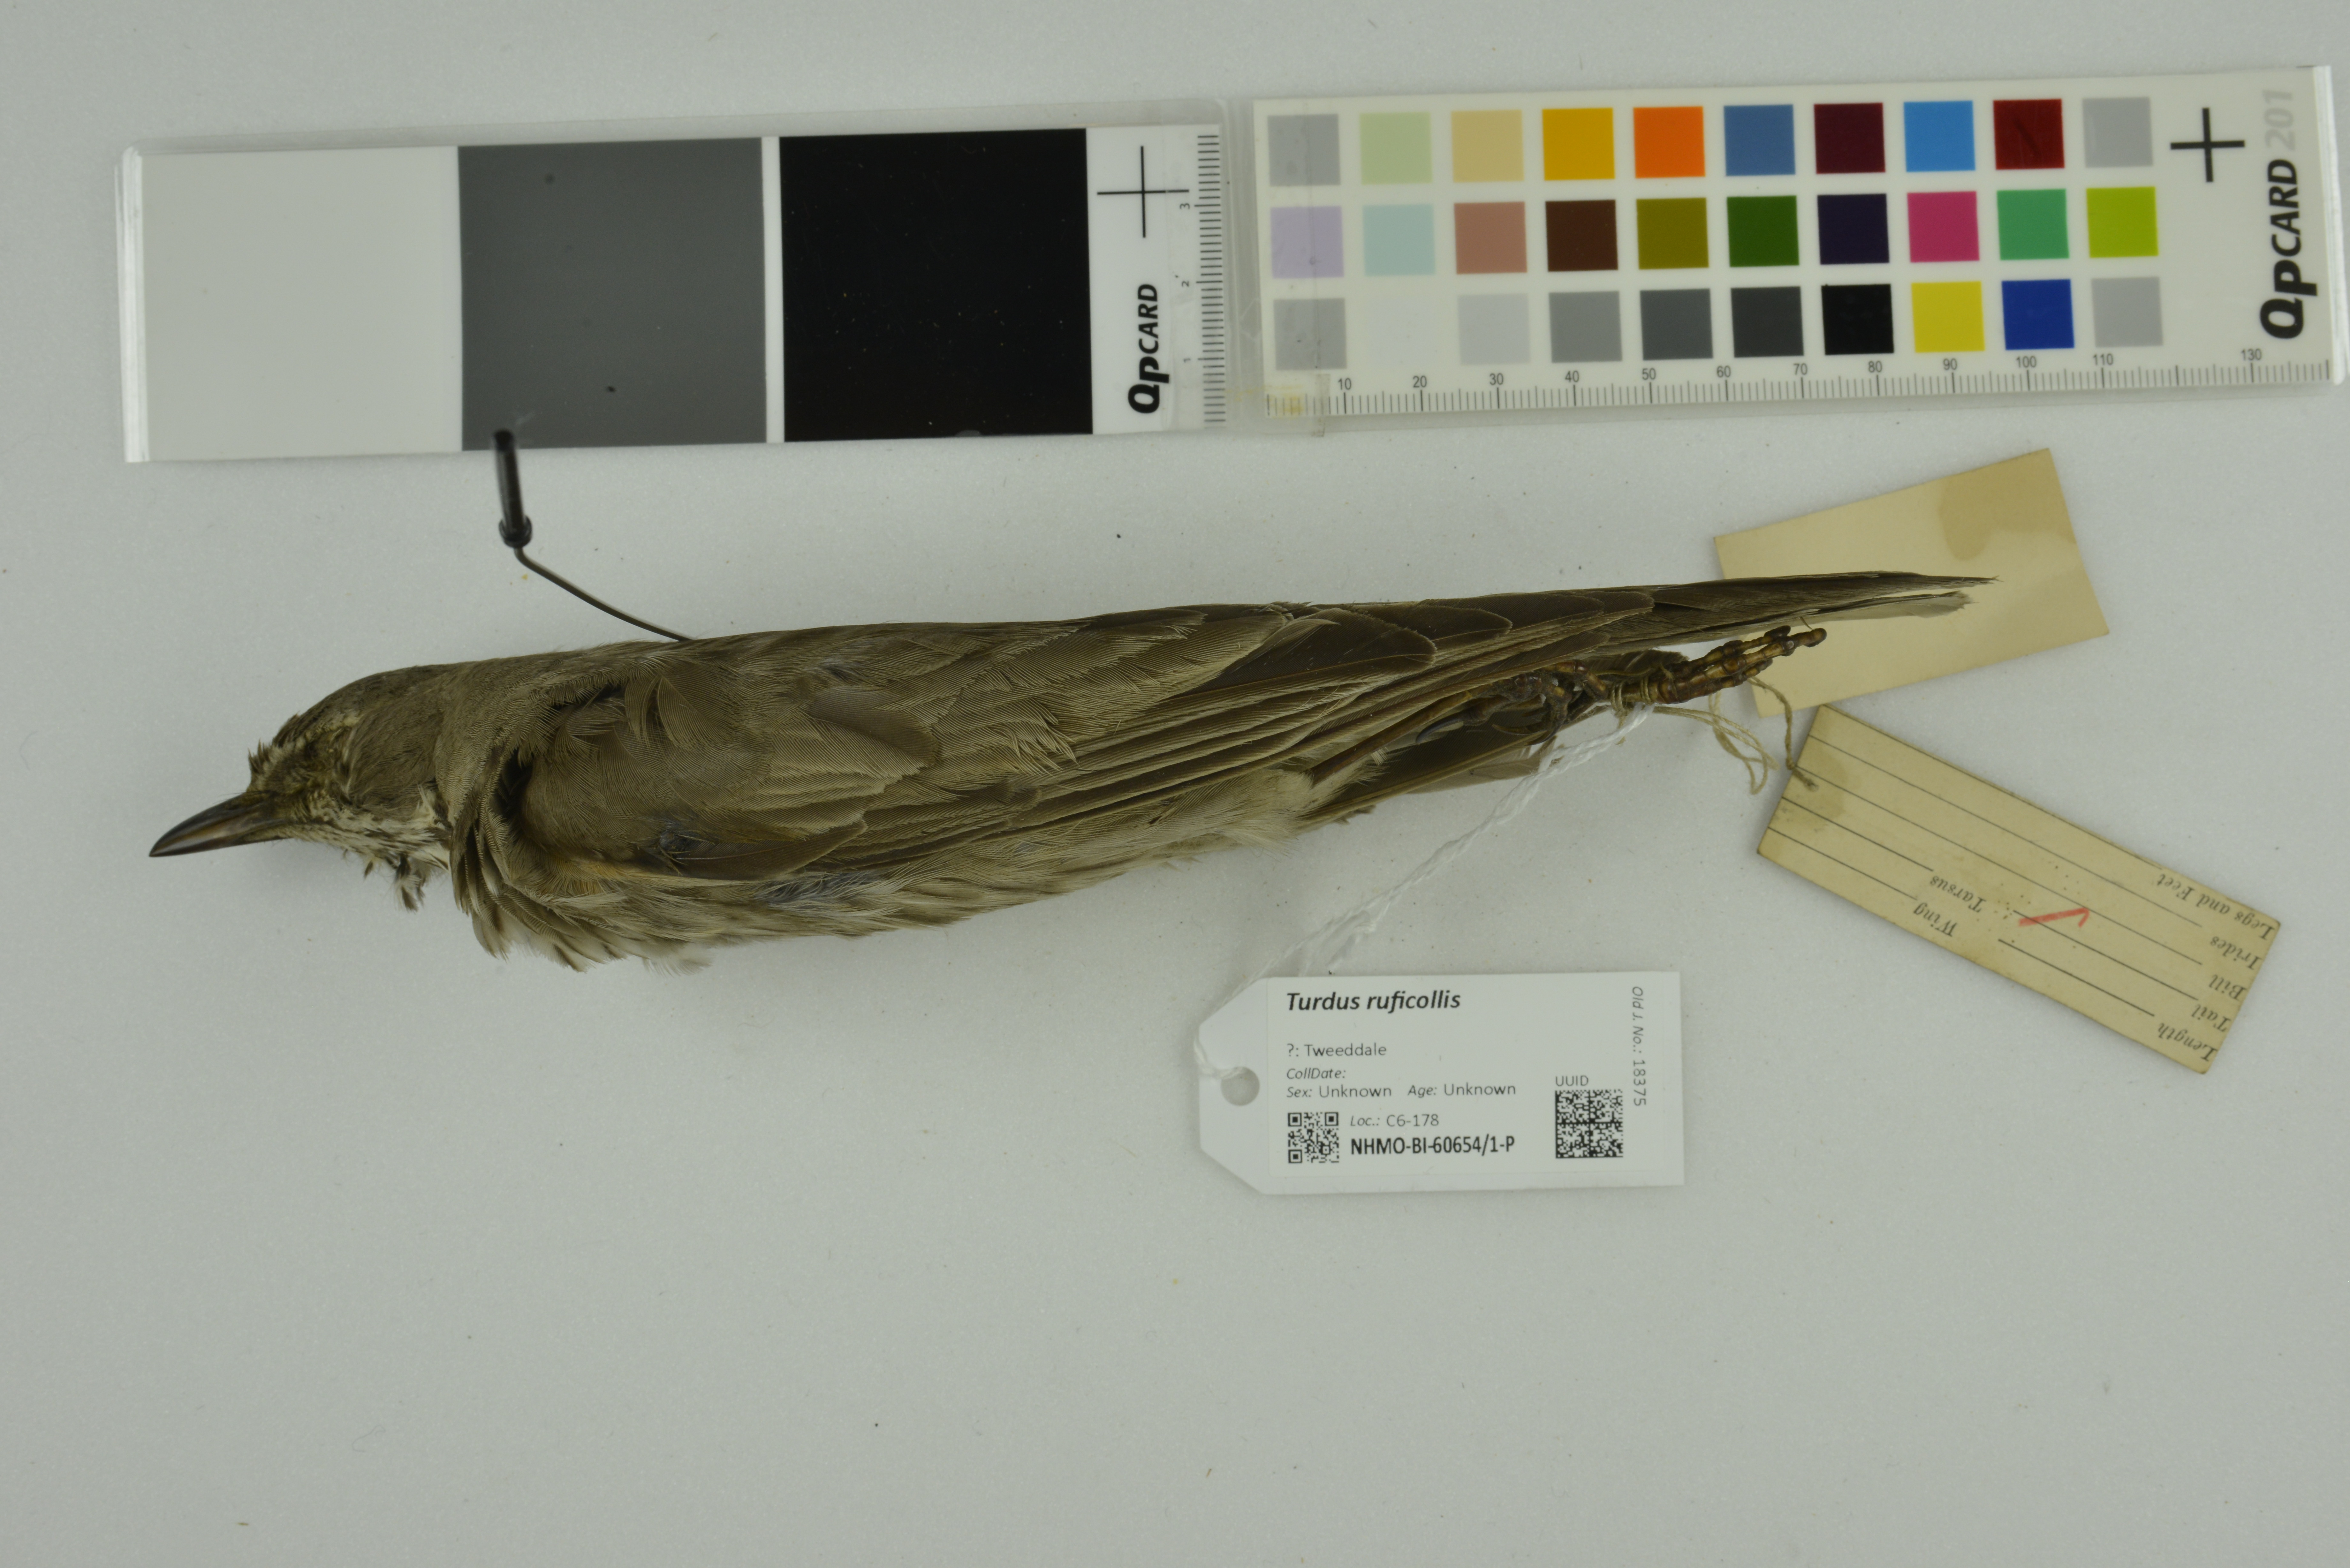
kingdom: Animalia
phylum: Chordata
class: Aves
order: Passeriformes
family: Turdidae
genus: Turdus
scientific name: Turdus ruficollis
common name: Red-throated thrush
